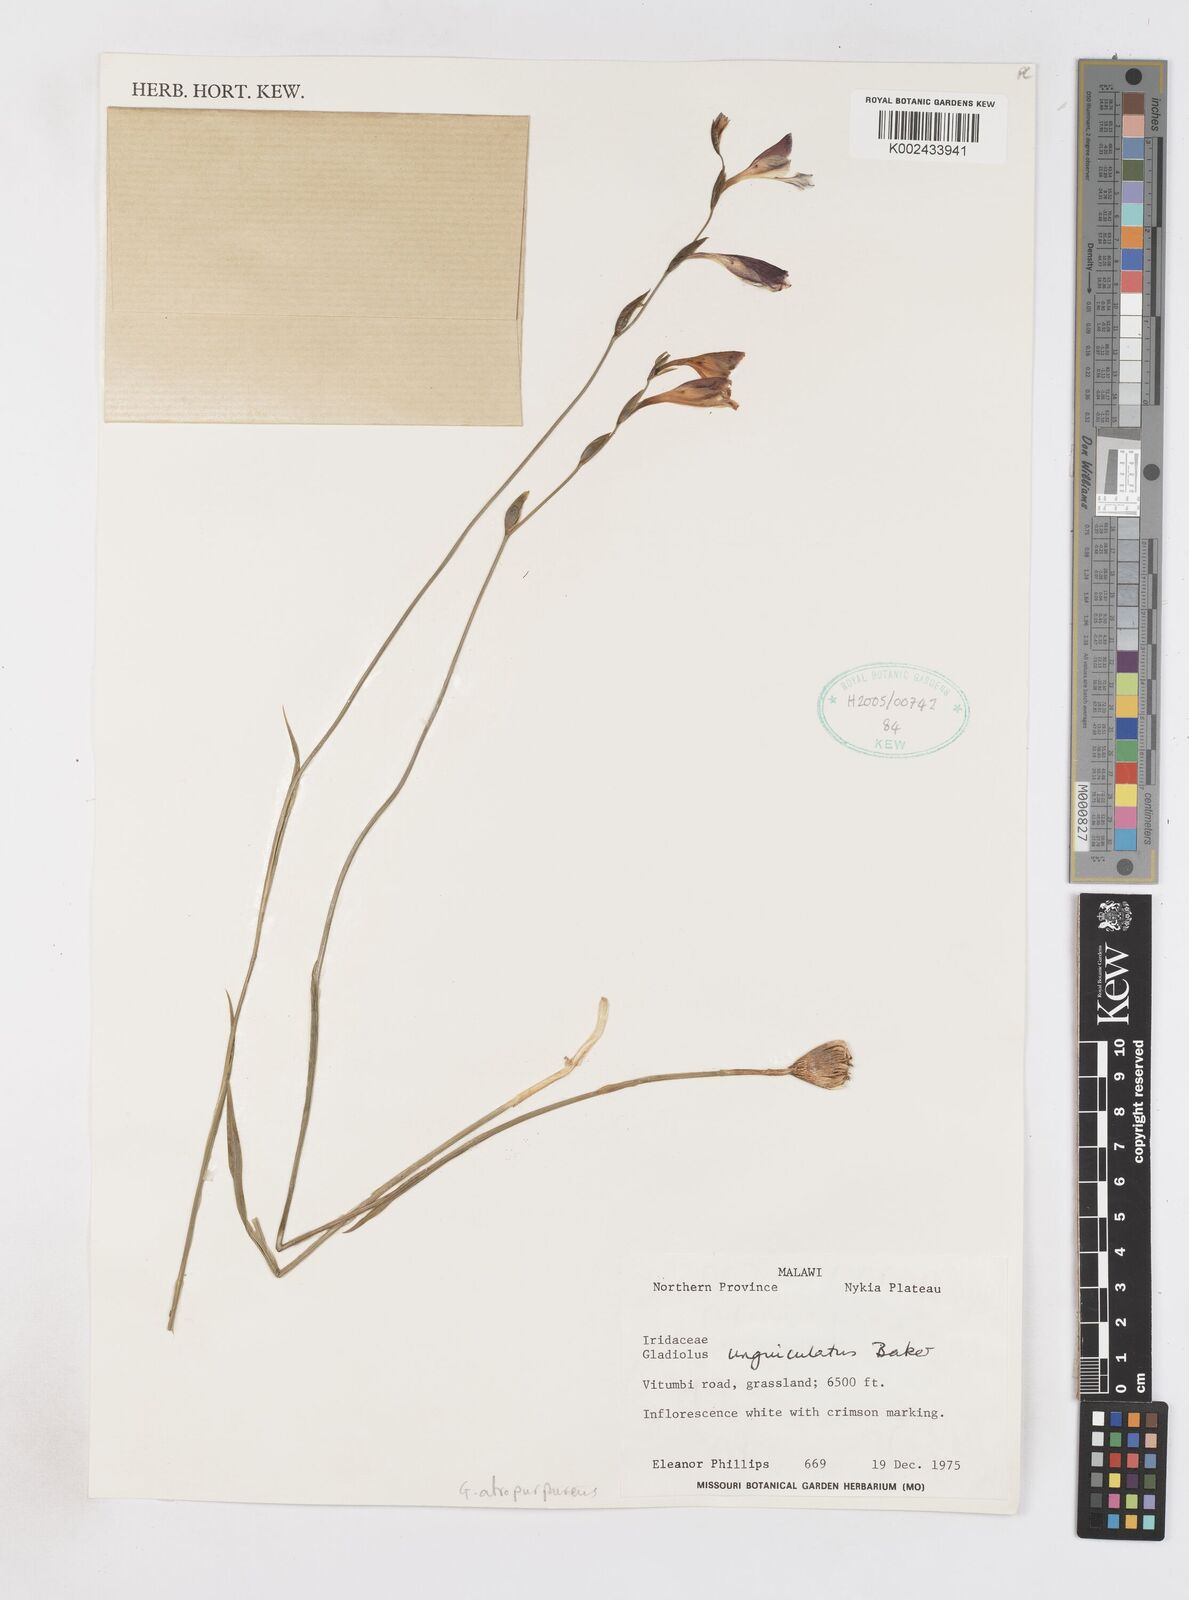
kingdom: Plantae
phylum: Tracheophyta
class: Liliopsida
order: Asparagales
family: Iridaceae
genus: Gladiolus
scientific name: Gladiolus atropurpureus
